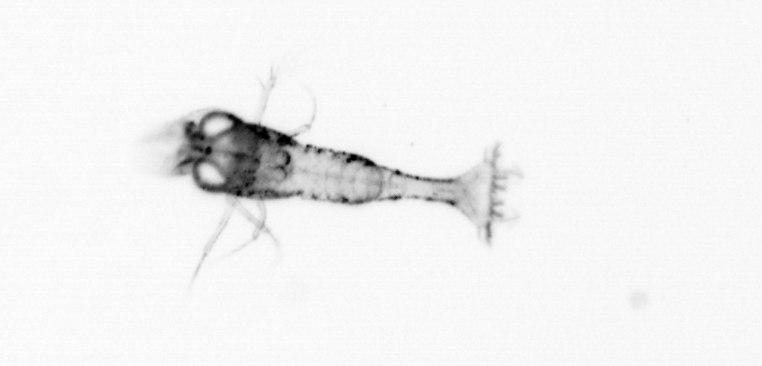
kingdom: Animalia
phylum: Arthropoda
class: Malacostraca
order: Decapoda
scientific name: Decapoda
